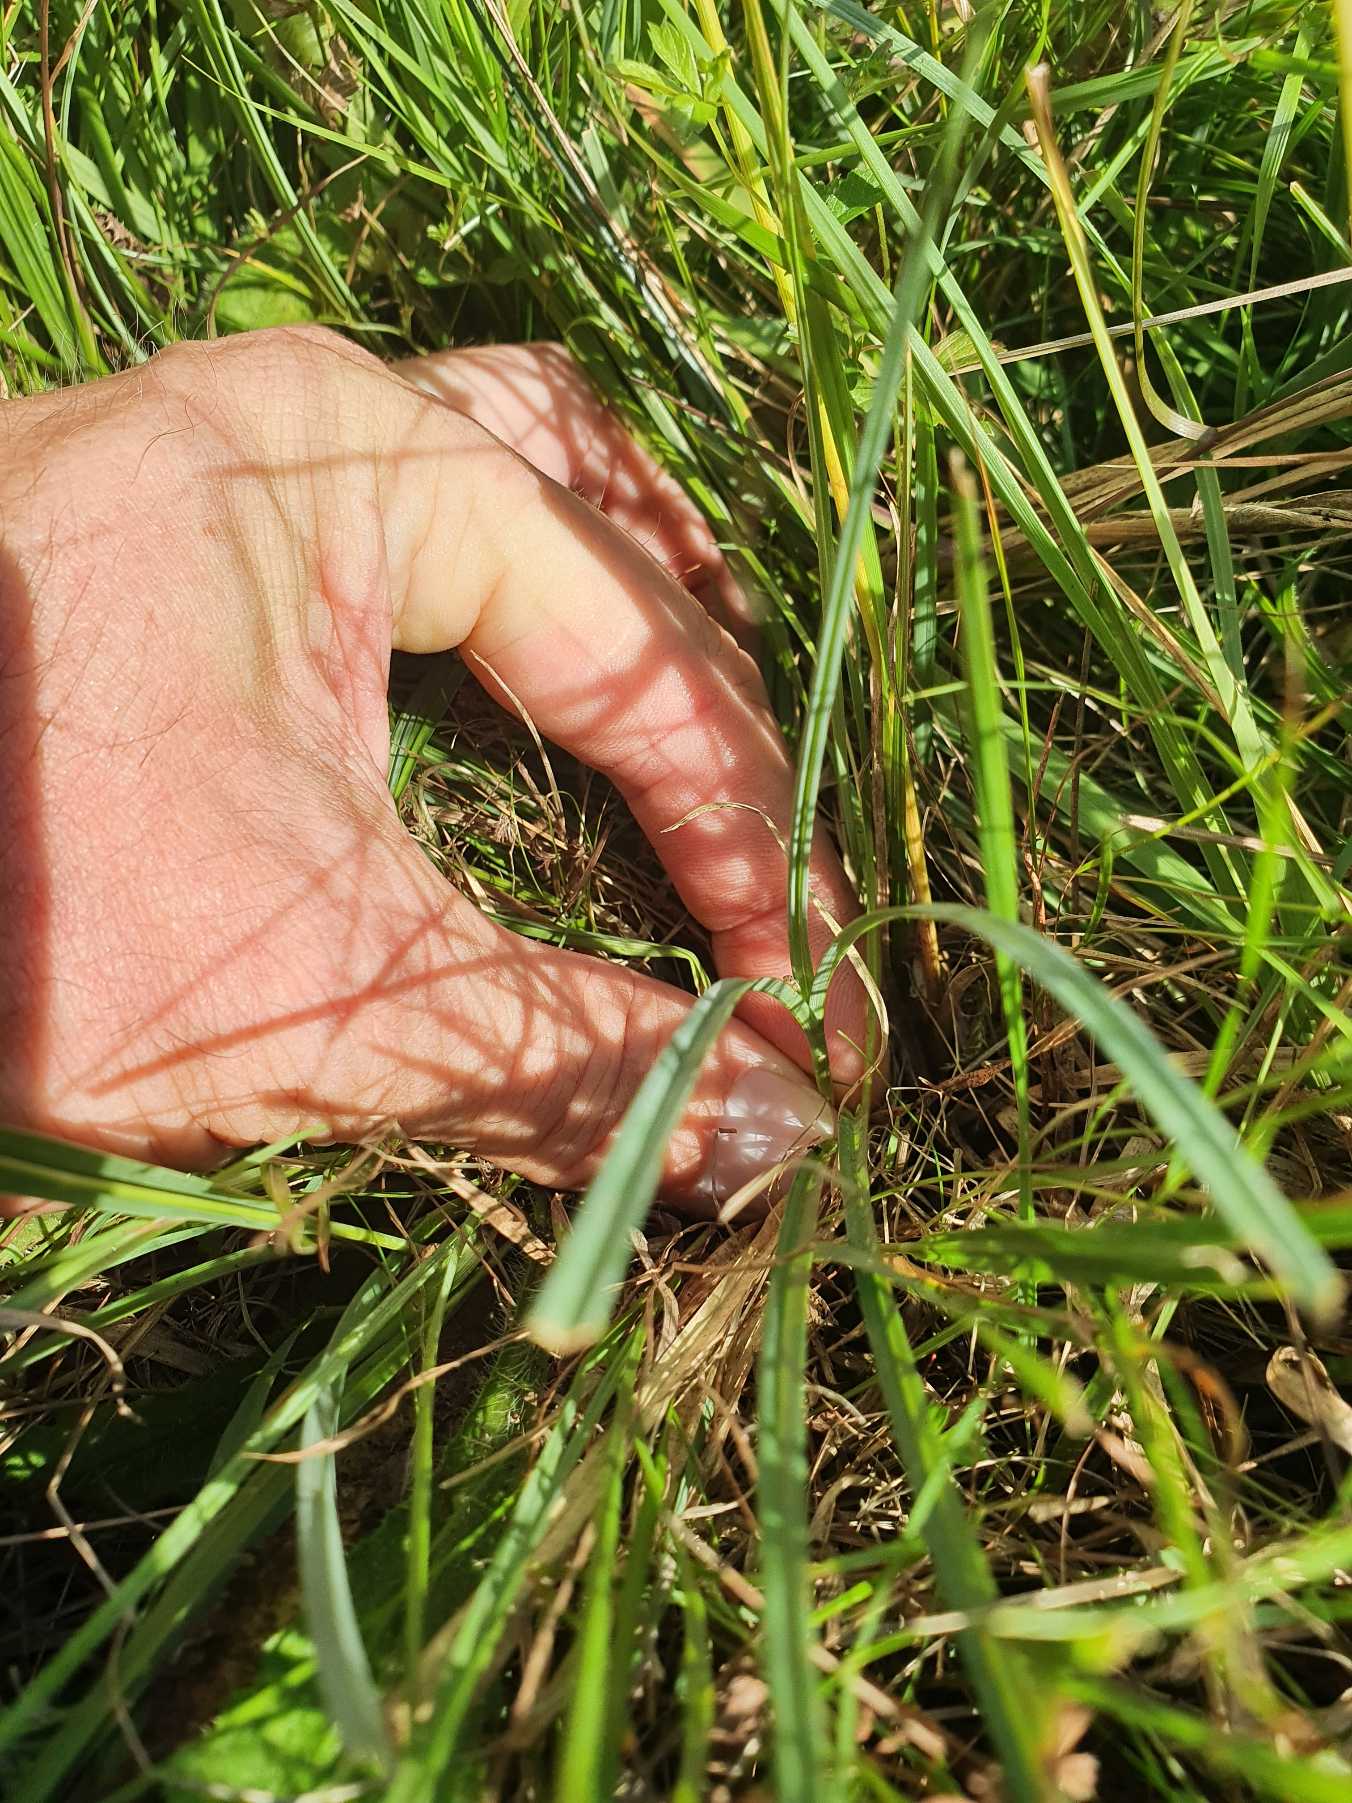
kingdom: Plantae
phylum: Tracheophyta
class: Liliopsida
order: Poales
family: Cyperaceae
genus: Carex
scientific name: Carex panicea
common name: Hirse-star
